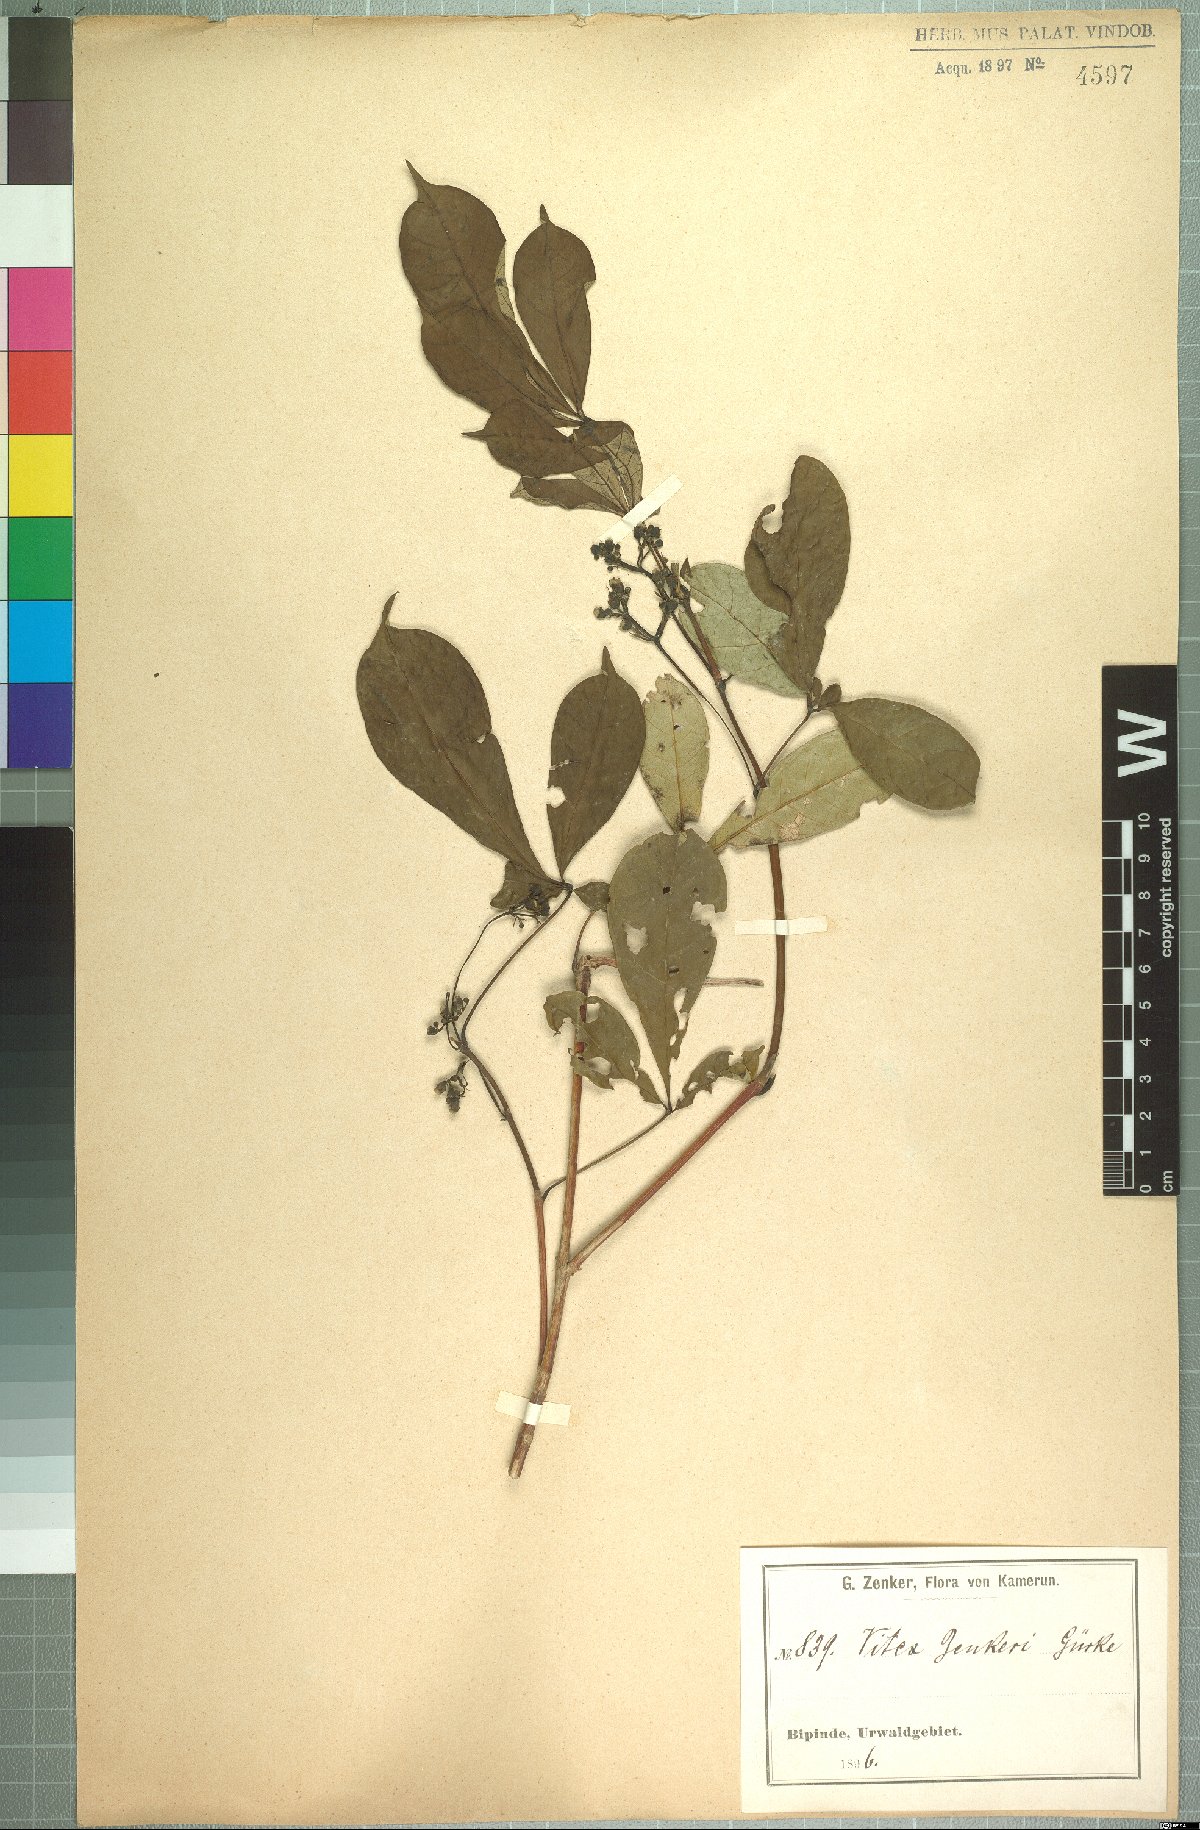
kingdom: Plantae
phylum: Tracheophyta
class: Magnoliopsida
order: Lamiales
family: Lamiaceae
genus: Vitex
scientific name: Vitex zenkeri
